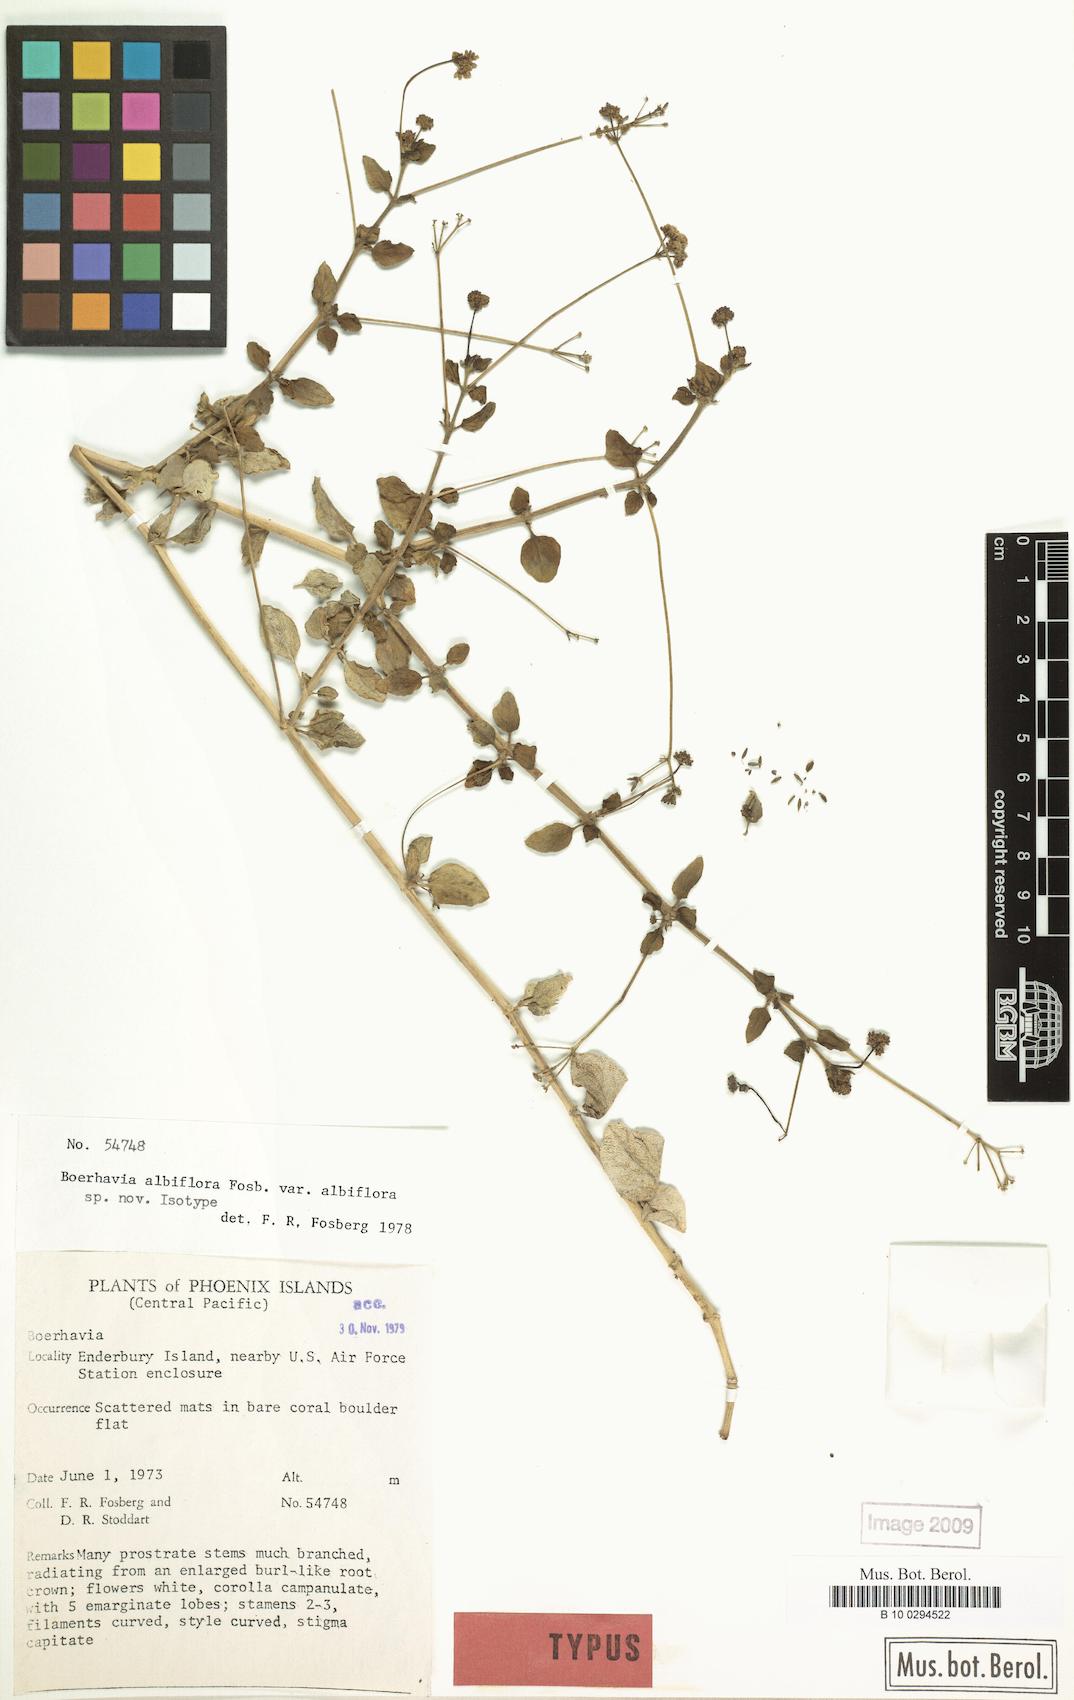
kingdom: Plantae
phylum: Tracheophyta
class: Magnoliopsida
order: Caryophyllales
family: Nyctaginaceae
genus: Boerhavia
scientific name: Boerhavia albiflora
